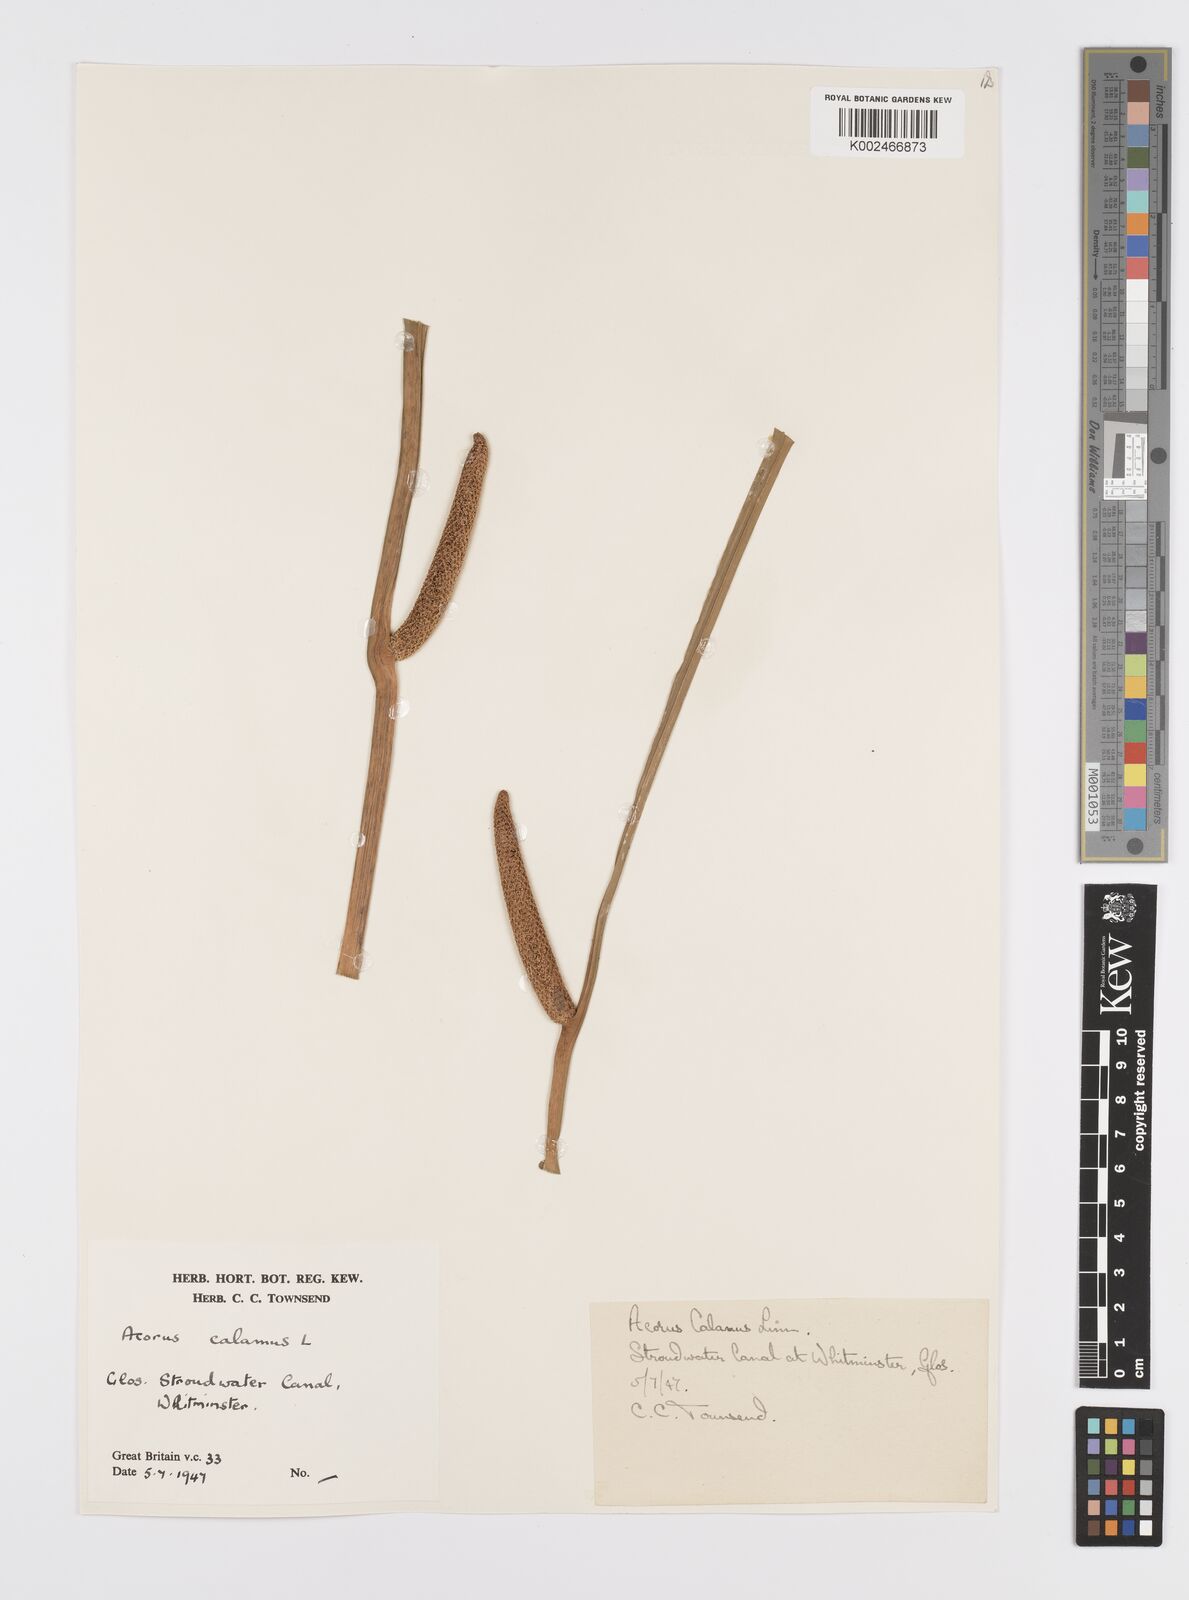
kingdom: Plantae
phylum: Tracheophyta
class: Liliopsida
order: Acorales
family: Acoraceae
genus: Acorus
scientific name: Acorus calamus
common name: Sweet-flag
